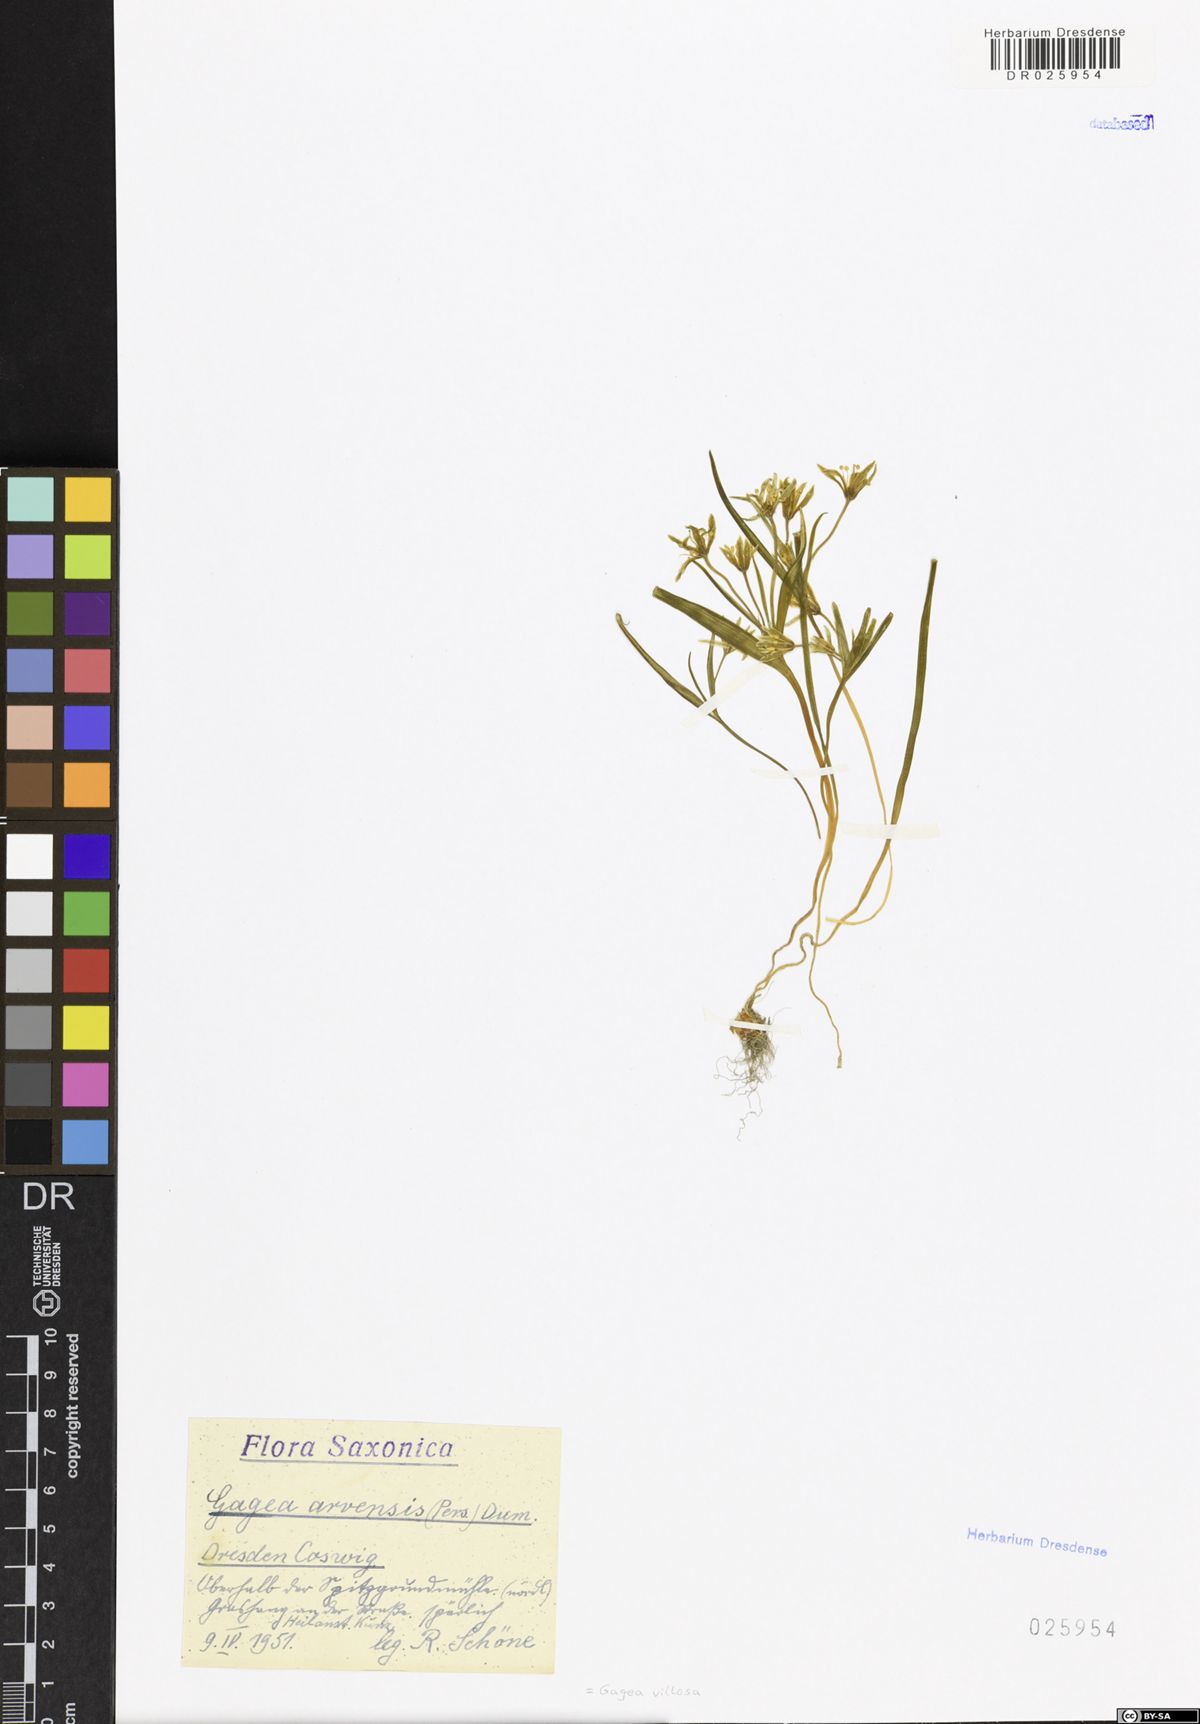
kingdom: Plantae
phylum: Tracheophyta
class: Liliopsida
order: Liliales
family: Liliaceae
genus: Gagea
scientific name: Gagea villosa
